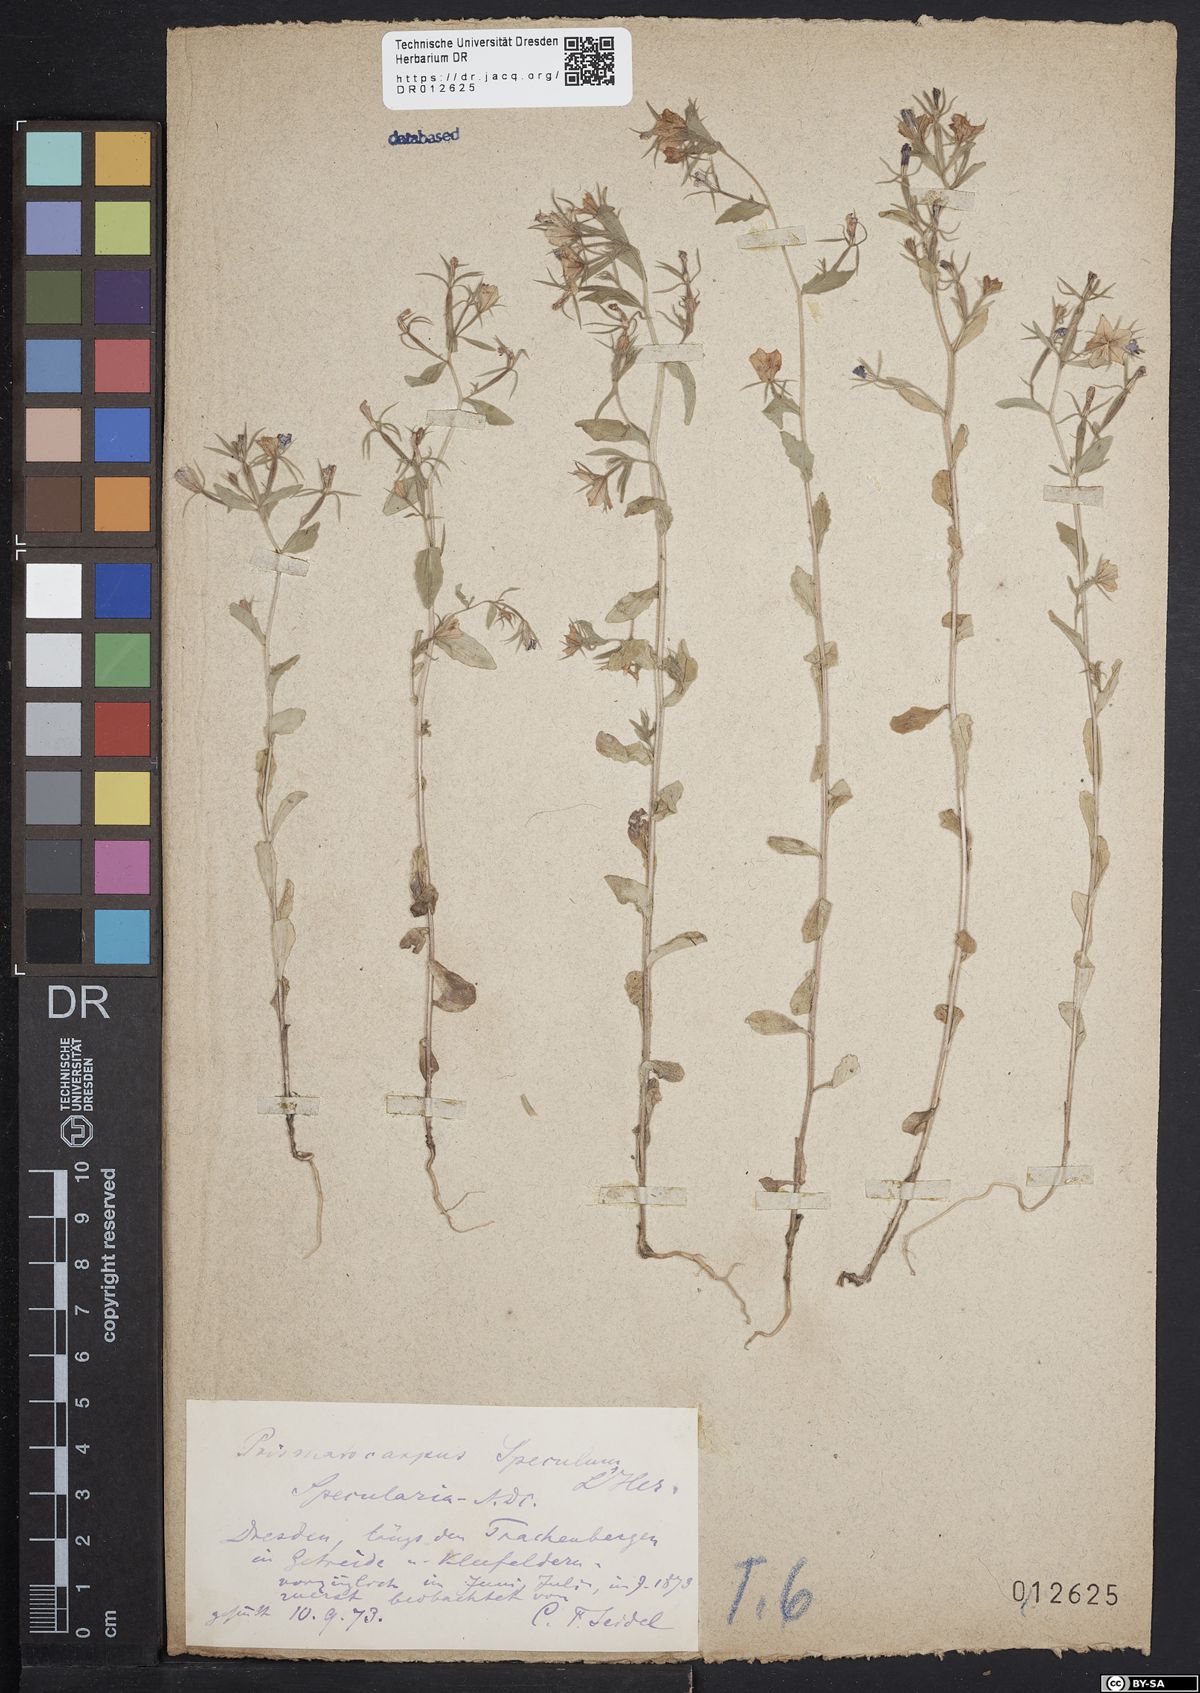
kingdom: Plantae
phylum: Tracheophyta
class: Magnoliopsida
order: Asterales
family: Campanulaceae
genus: Legousia
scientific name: Legousia speculum-veneris
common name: Large venus's-looking-glass
